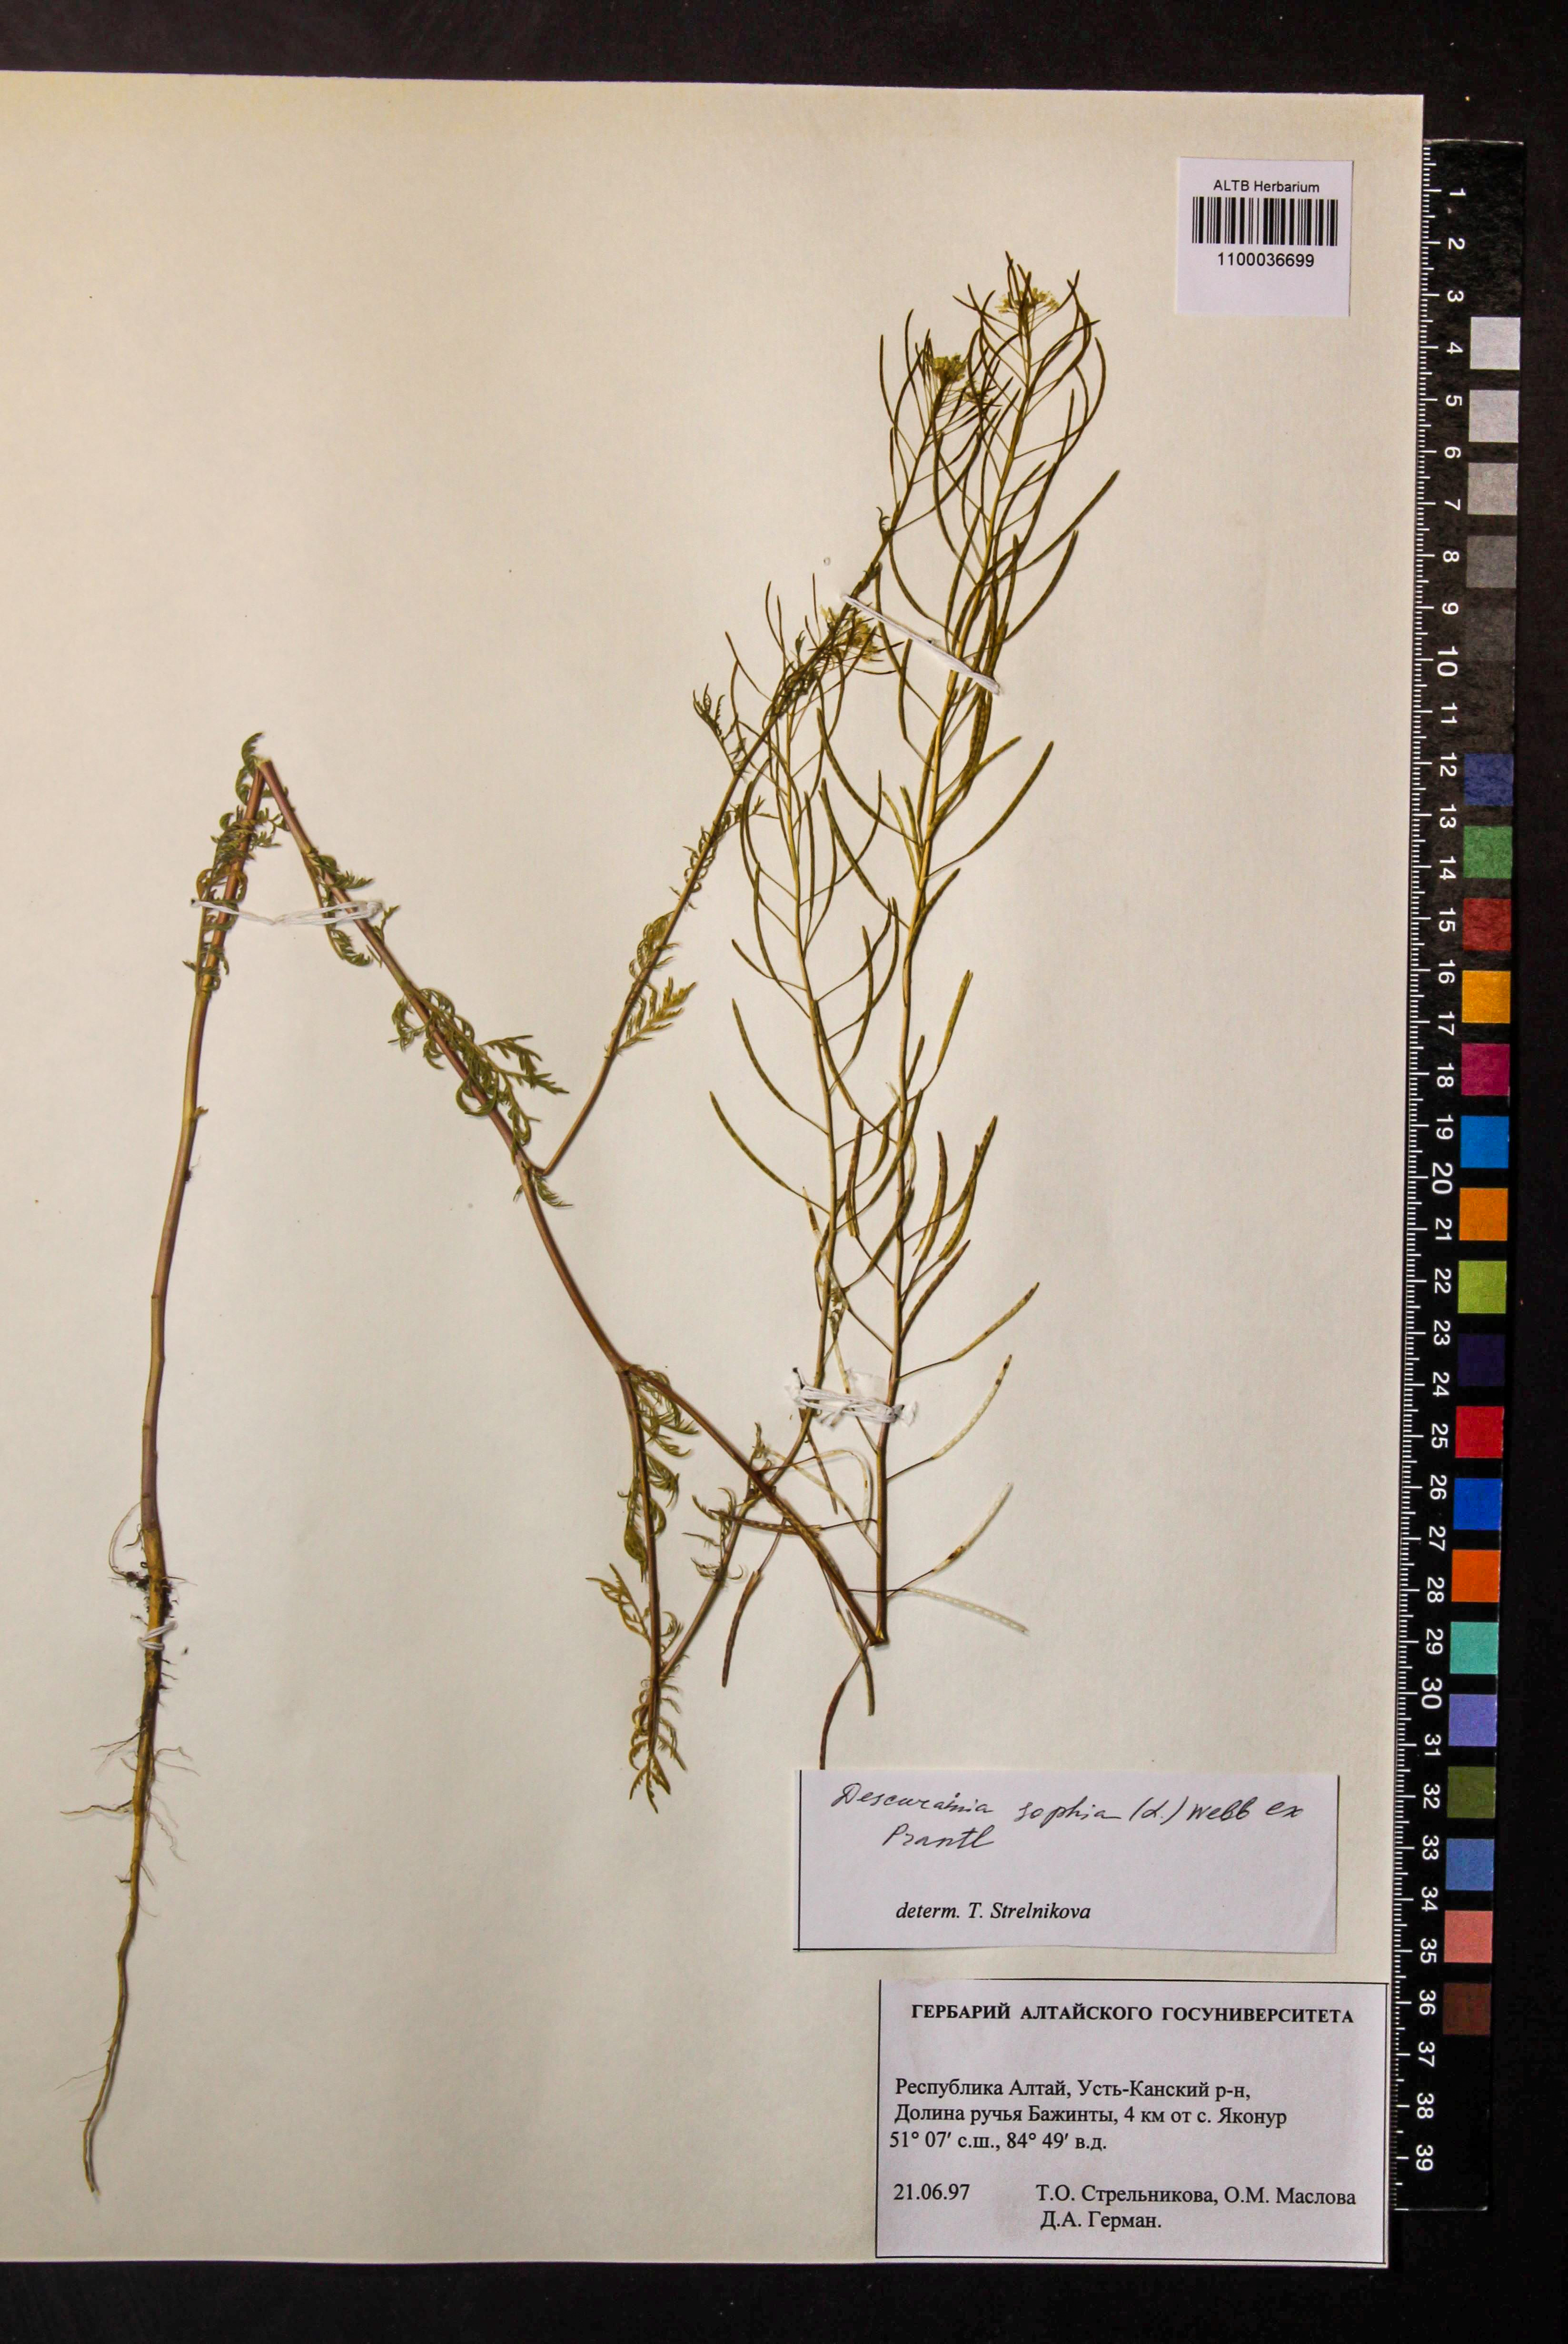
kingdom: Plantae
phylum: Tracheophyta
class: Magnoliopsida
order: Brassicales
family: Brassicaceae
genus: Descurainia
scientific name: Descurainia sophia
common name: Flixweed
